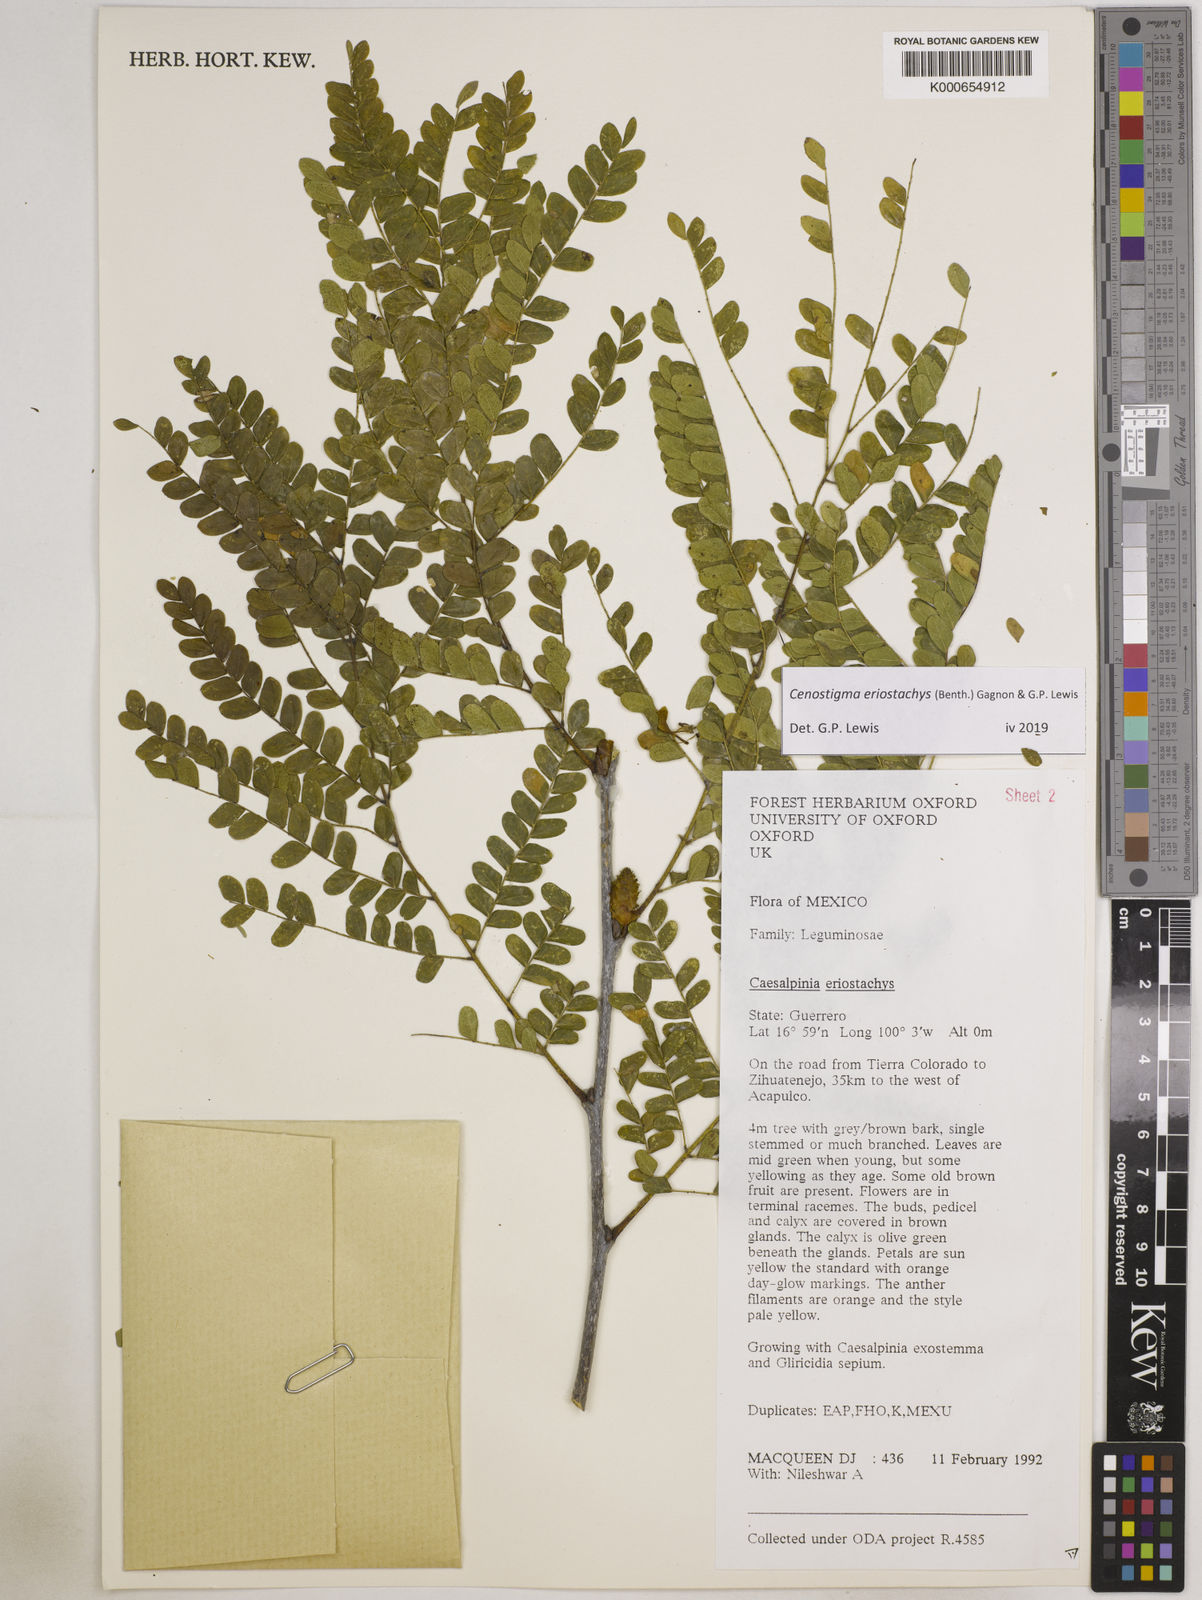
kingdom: Plantae
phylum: Tracheophyta
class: Magnoliopsida
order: Fabales
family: Fabaceae
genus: Cenostigma
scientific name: Cenostigma eriostachys
